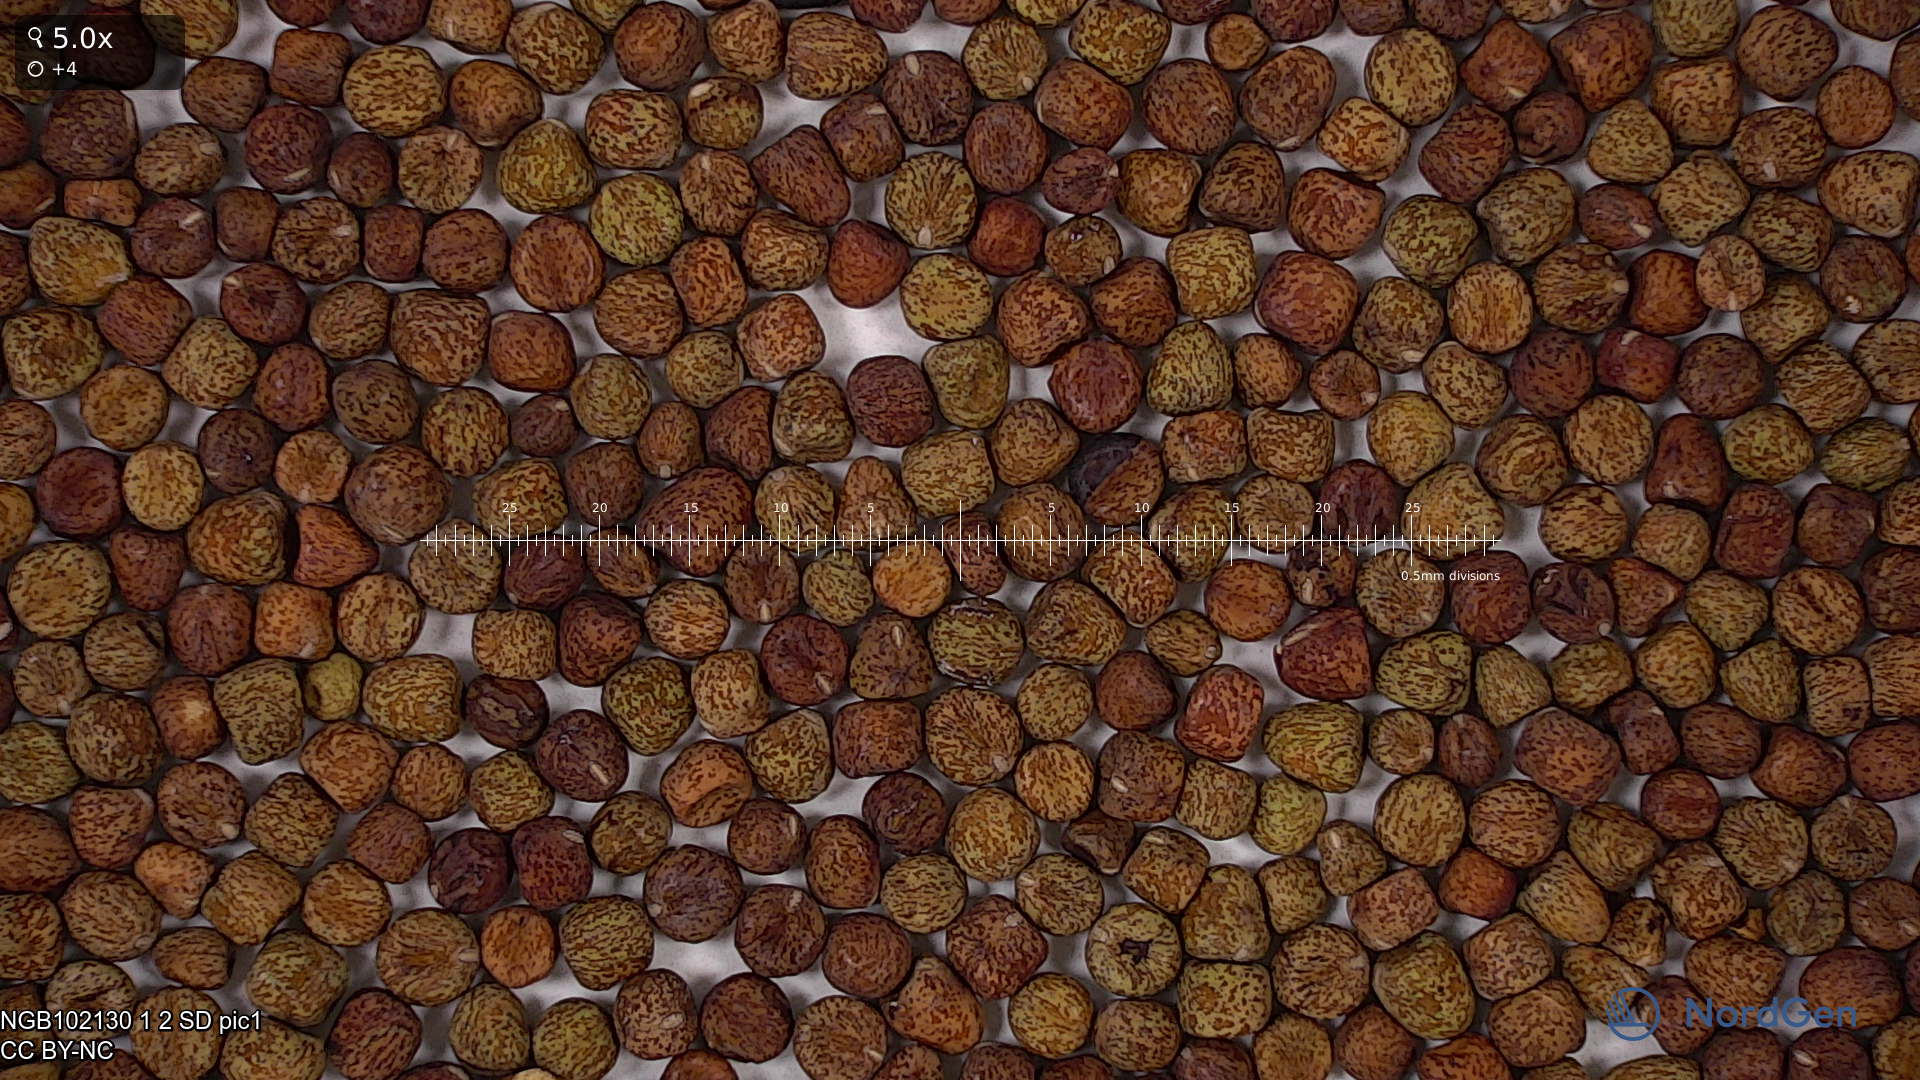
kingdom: Plantae
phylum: Tracheophyta
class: Magnoliopsida
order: Fabales
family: Fabaceae
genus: Lathyrus
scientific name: Lathyrus oleraceus
